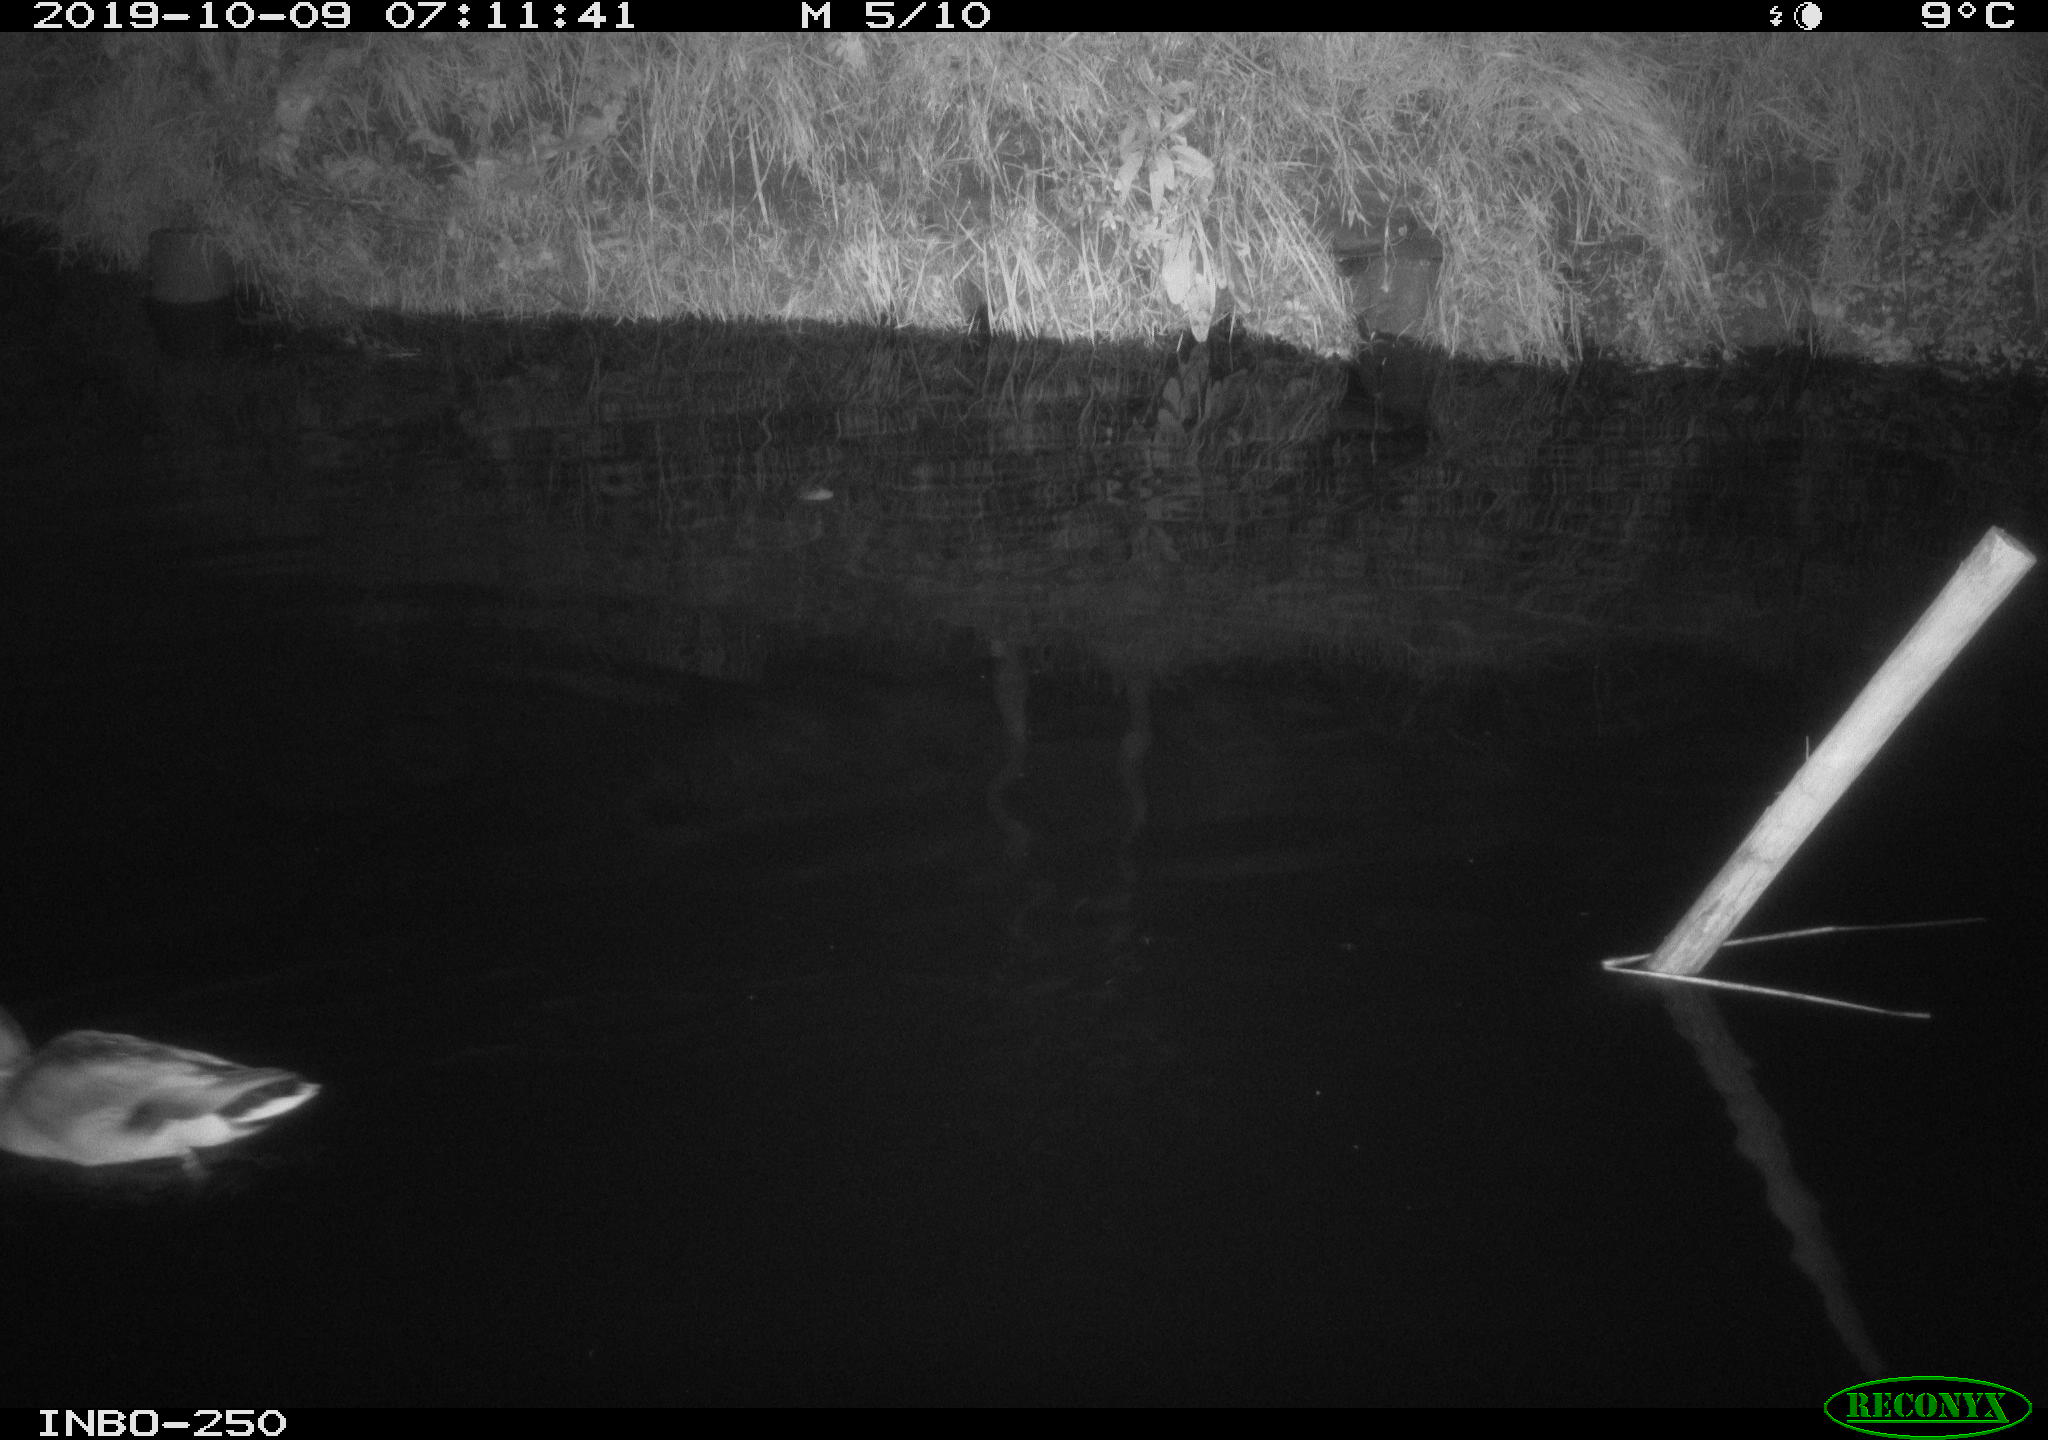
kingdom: Animalia
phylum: Chordata
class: Aves
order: Anseriformes
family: Anatidae
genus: Anas
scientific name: Anas platyrhynchos
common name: Mallard
